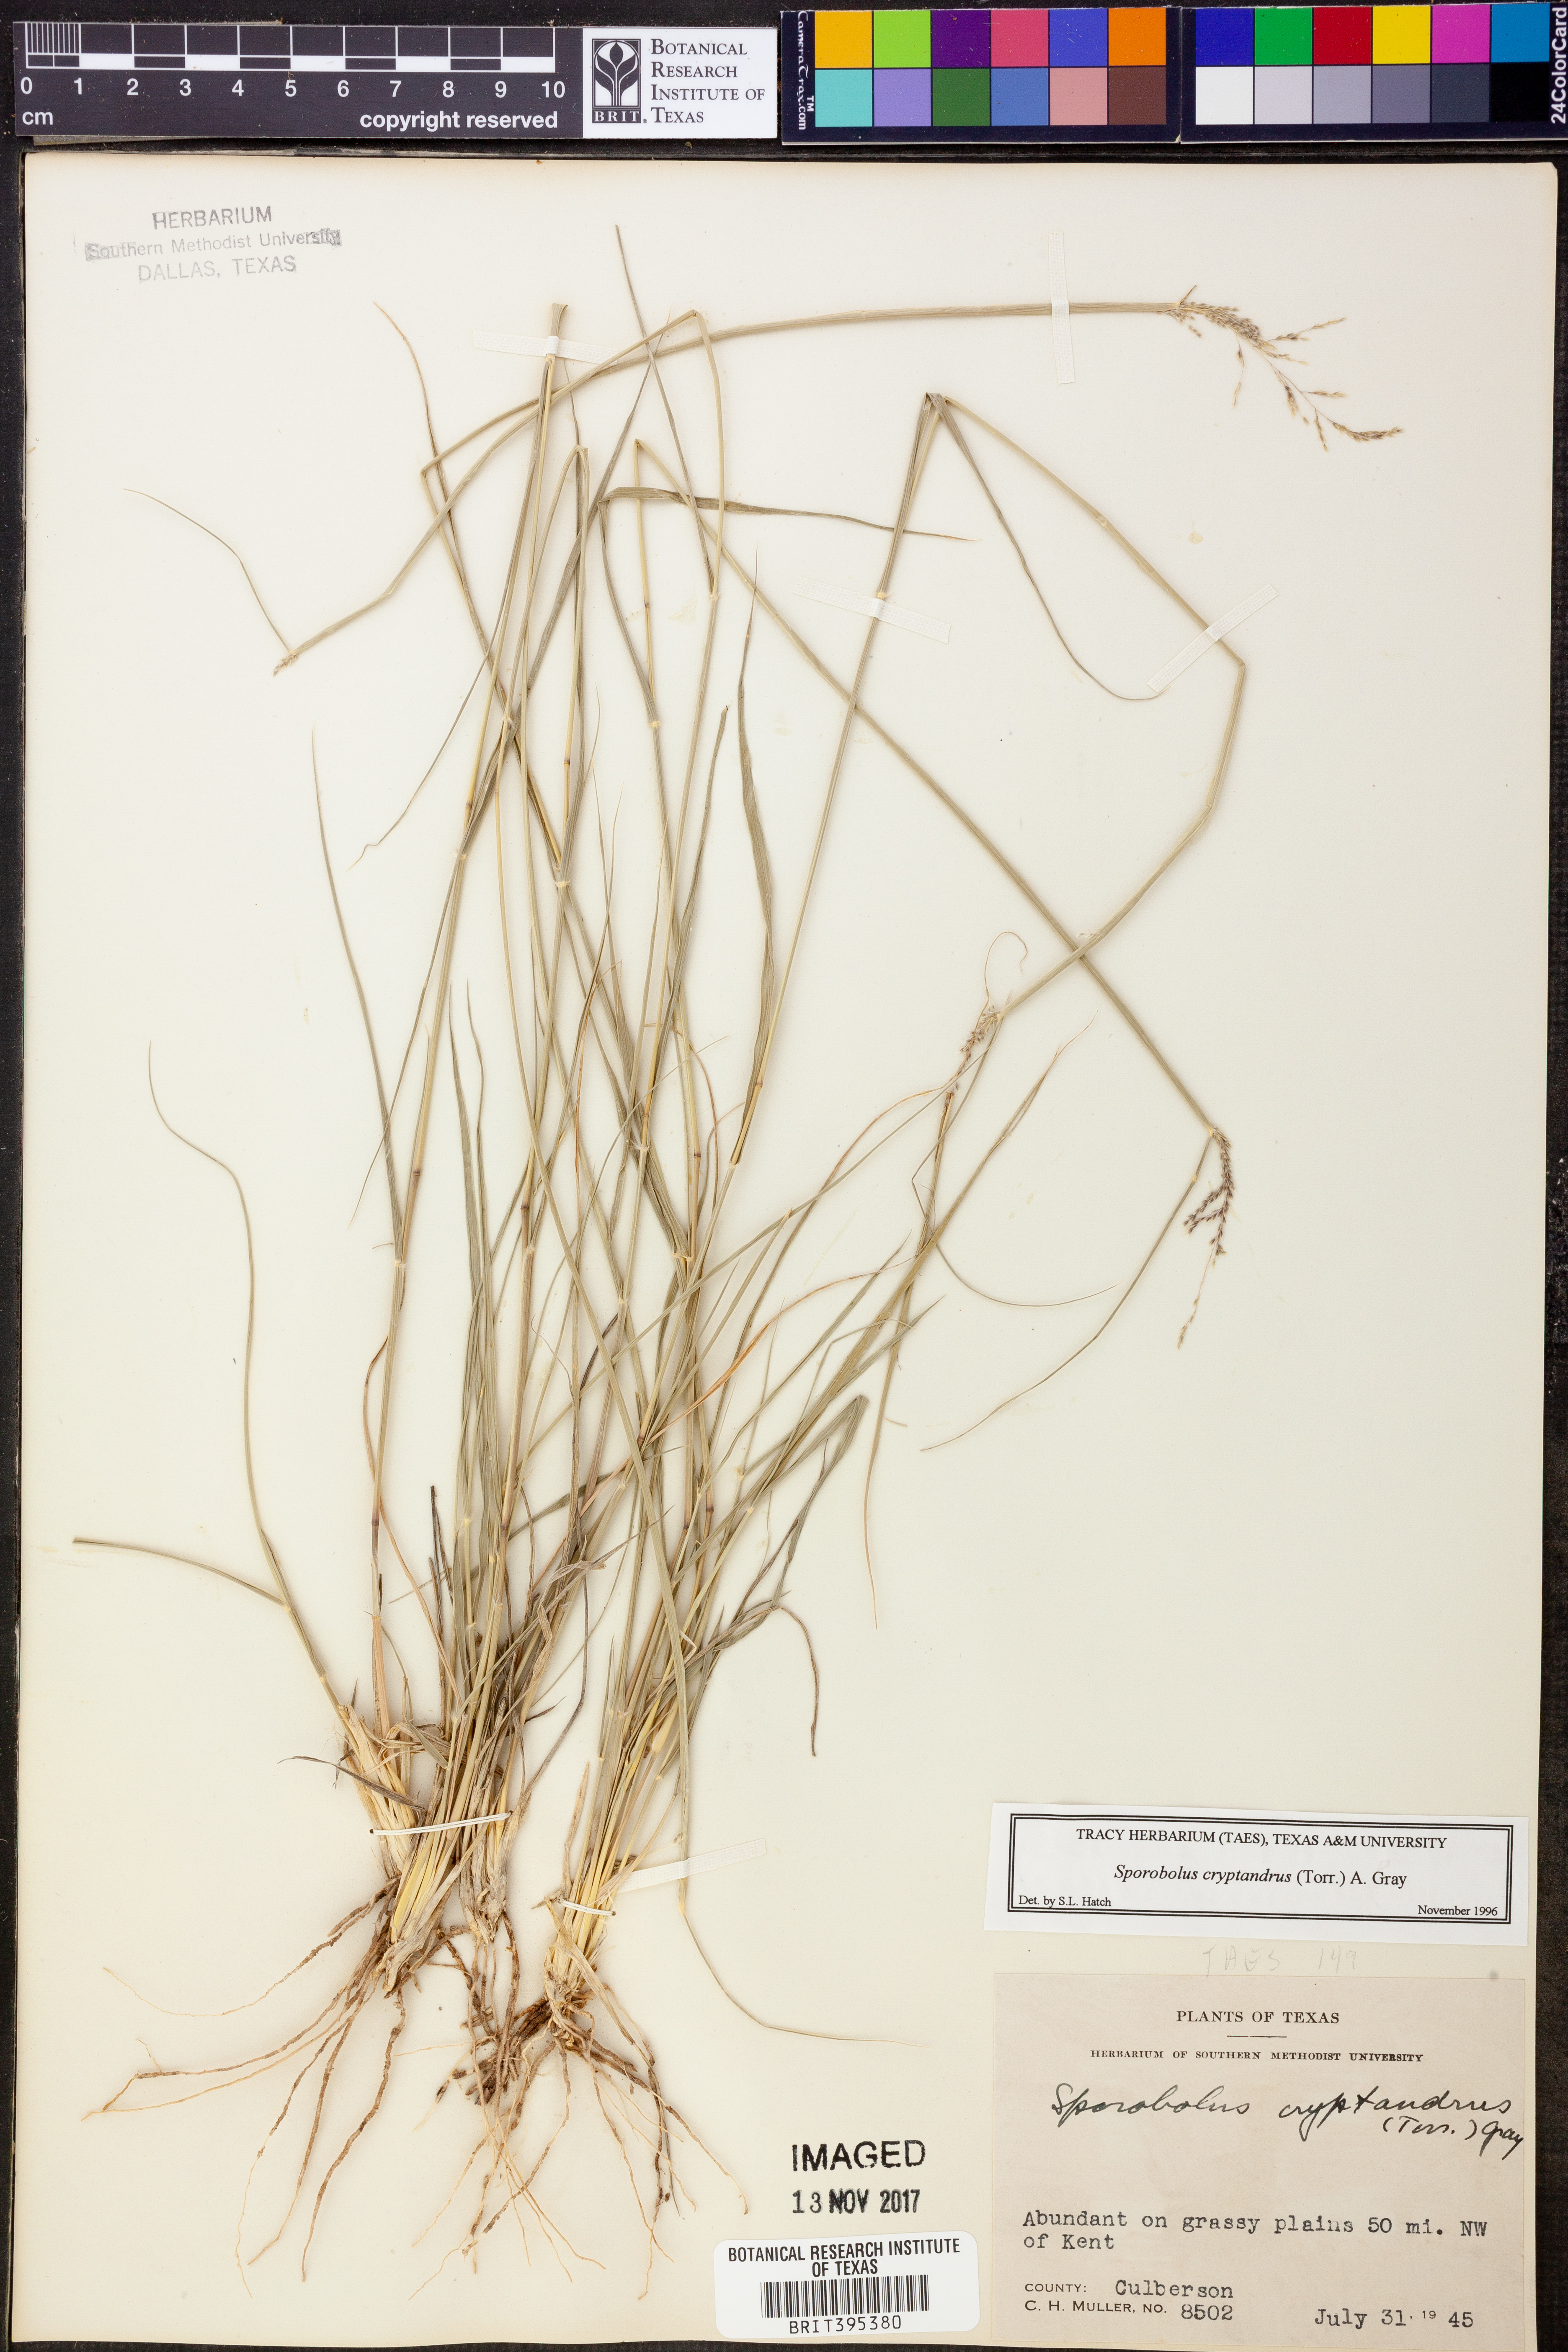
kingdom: Plantae
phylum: Tracheophyta
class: Liliopsida
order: Poales
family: Poaceae
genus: Sporobolus
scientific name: Sporobolus cryptandrus
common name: Sand dropseed
